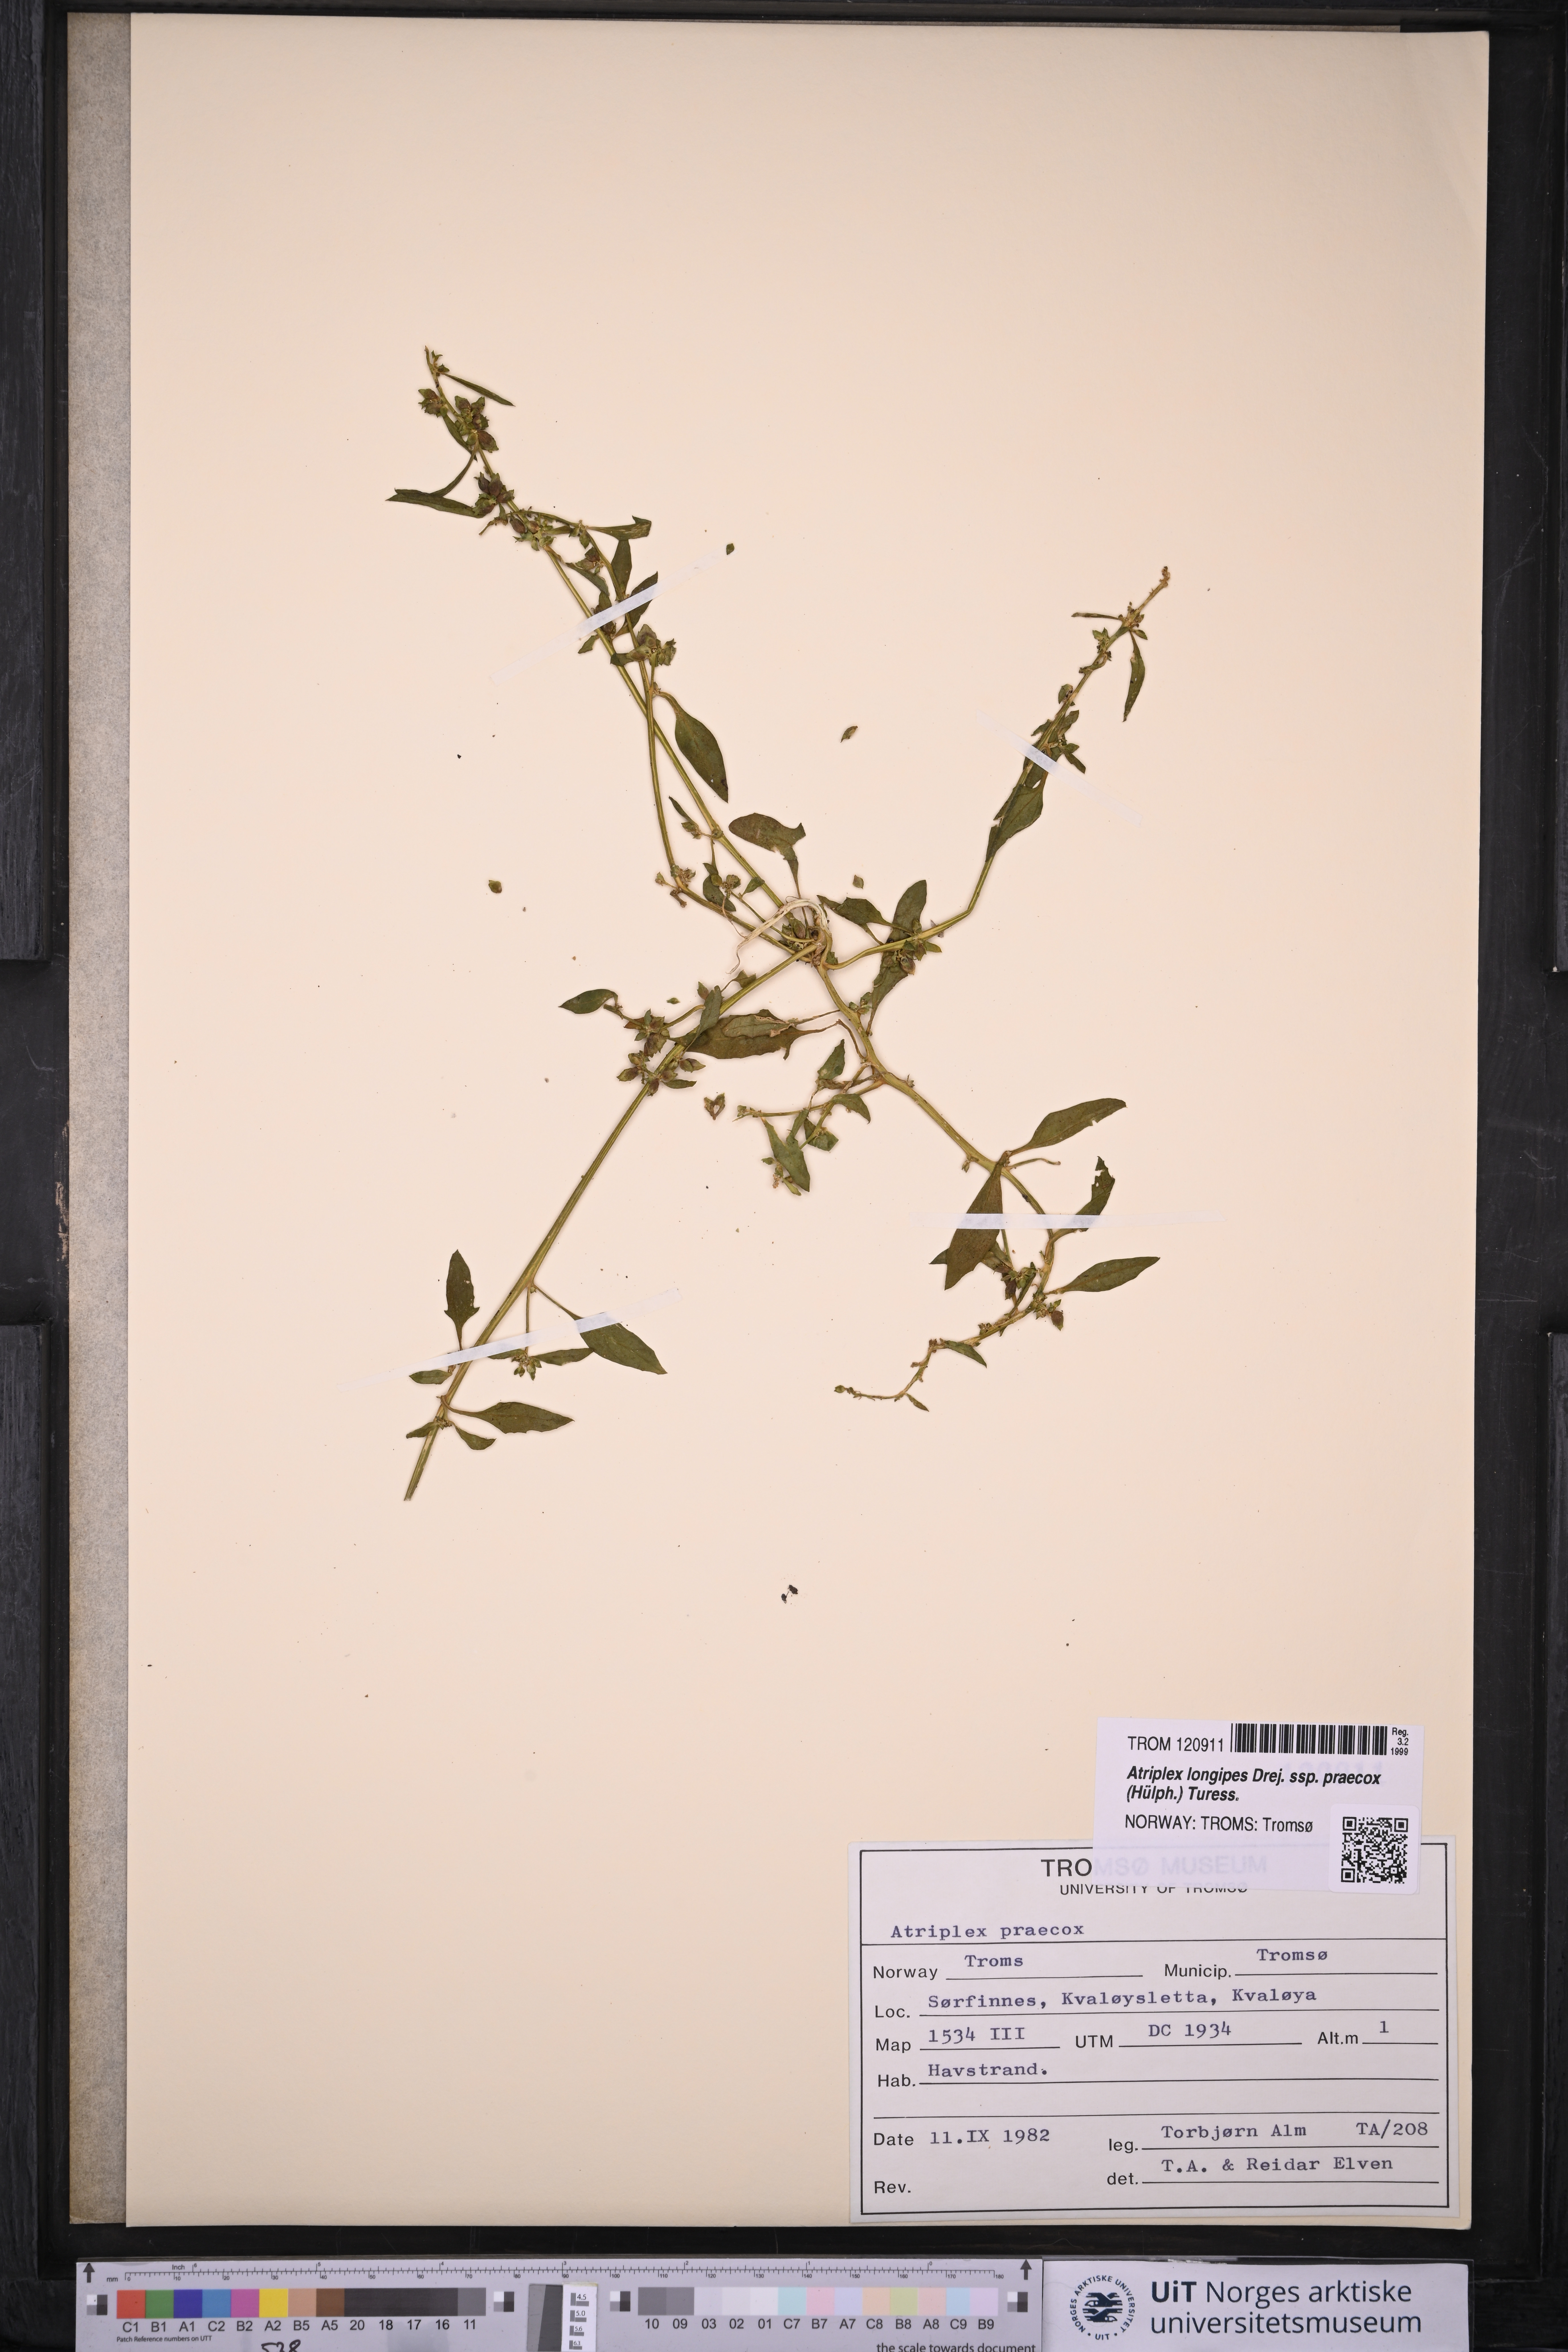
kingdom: Plantae
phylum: Tracheophyta
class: Magnoliopsida
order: Caryophyllales
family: Amaranthaceae
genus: Atriplex
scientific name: Atriplex praecox
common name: Early orache
